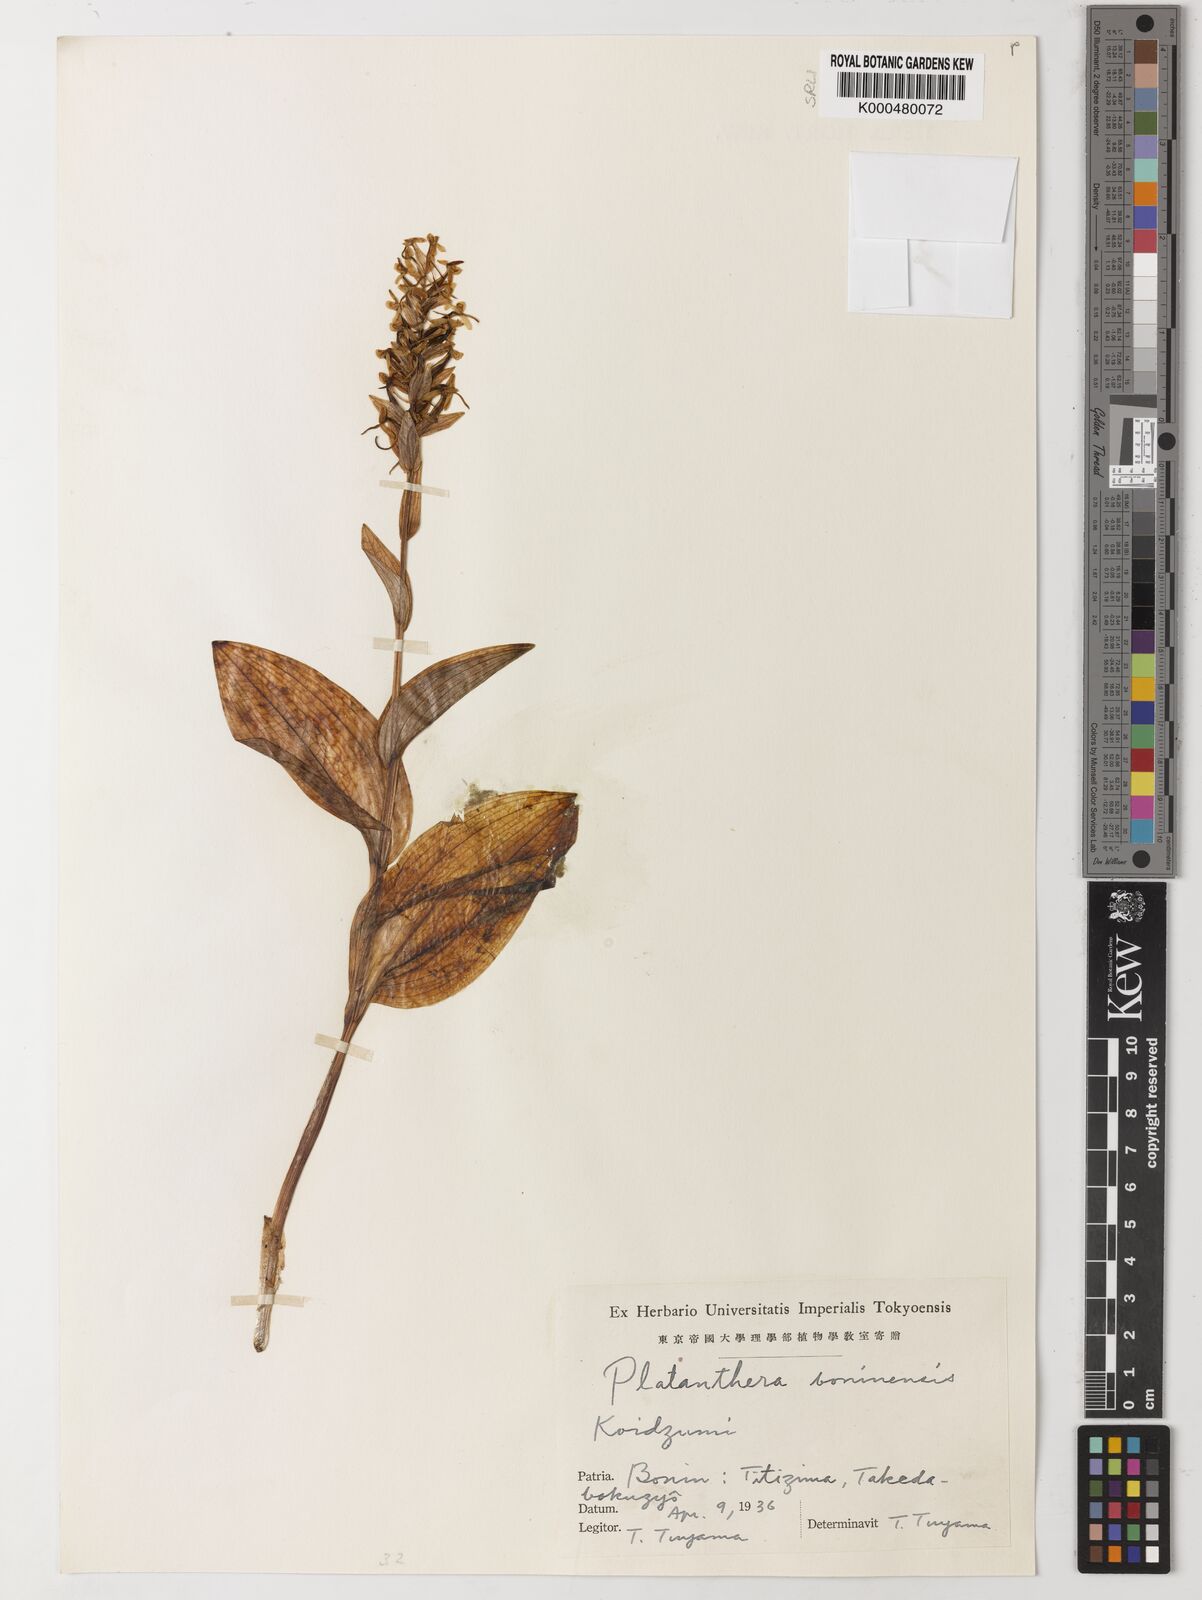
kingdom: Plantae
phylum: Tracheophyta
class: Liliopsida
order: Asparagales
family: Orchidaceae
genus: Platanthera
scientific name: Platanthera boninensis
